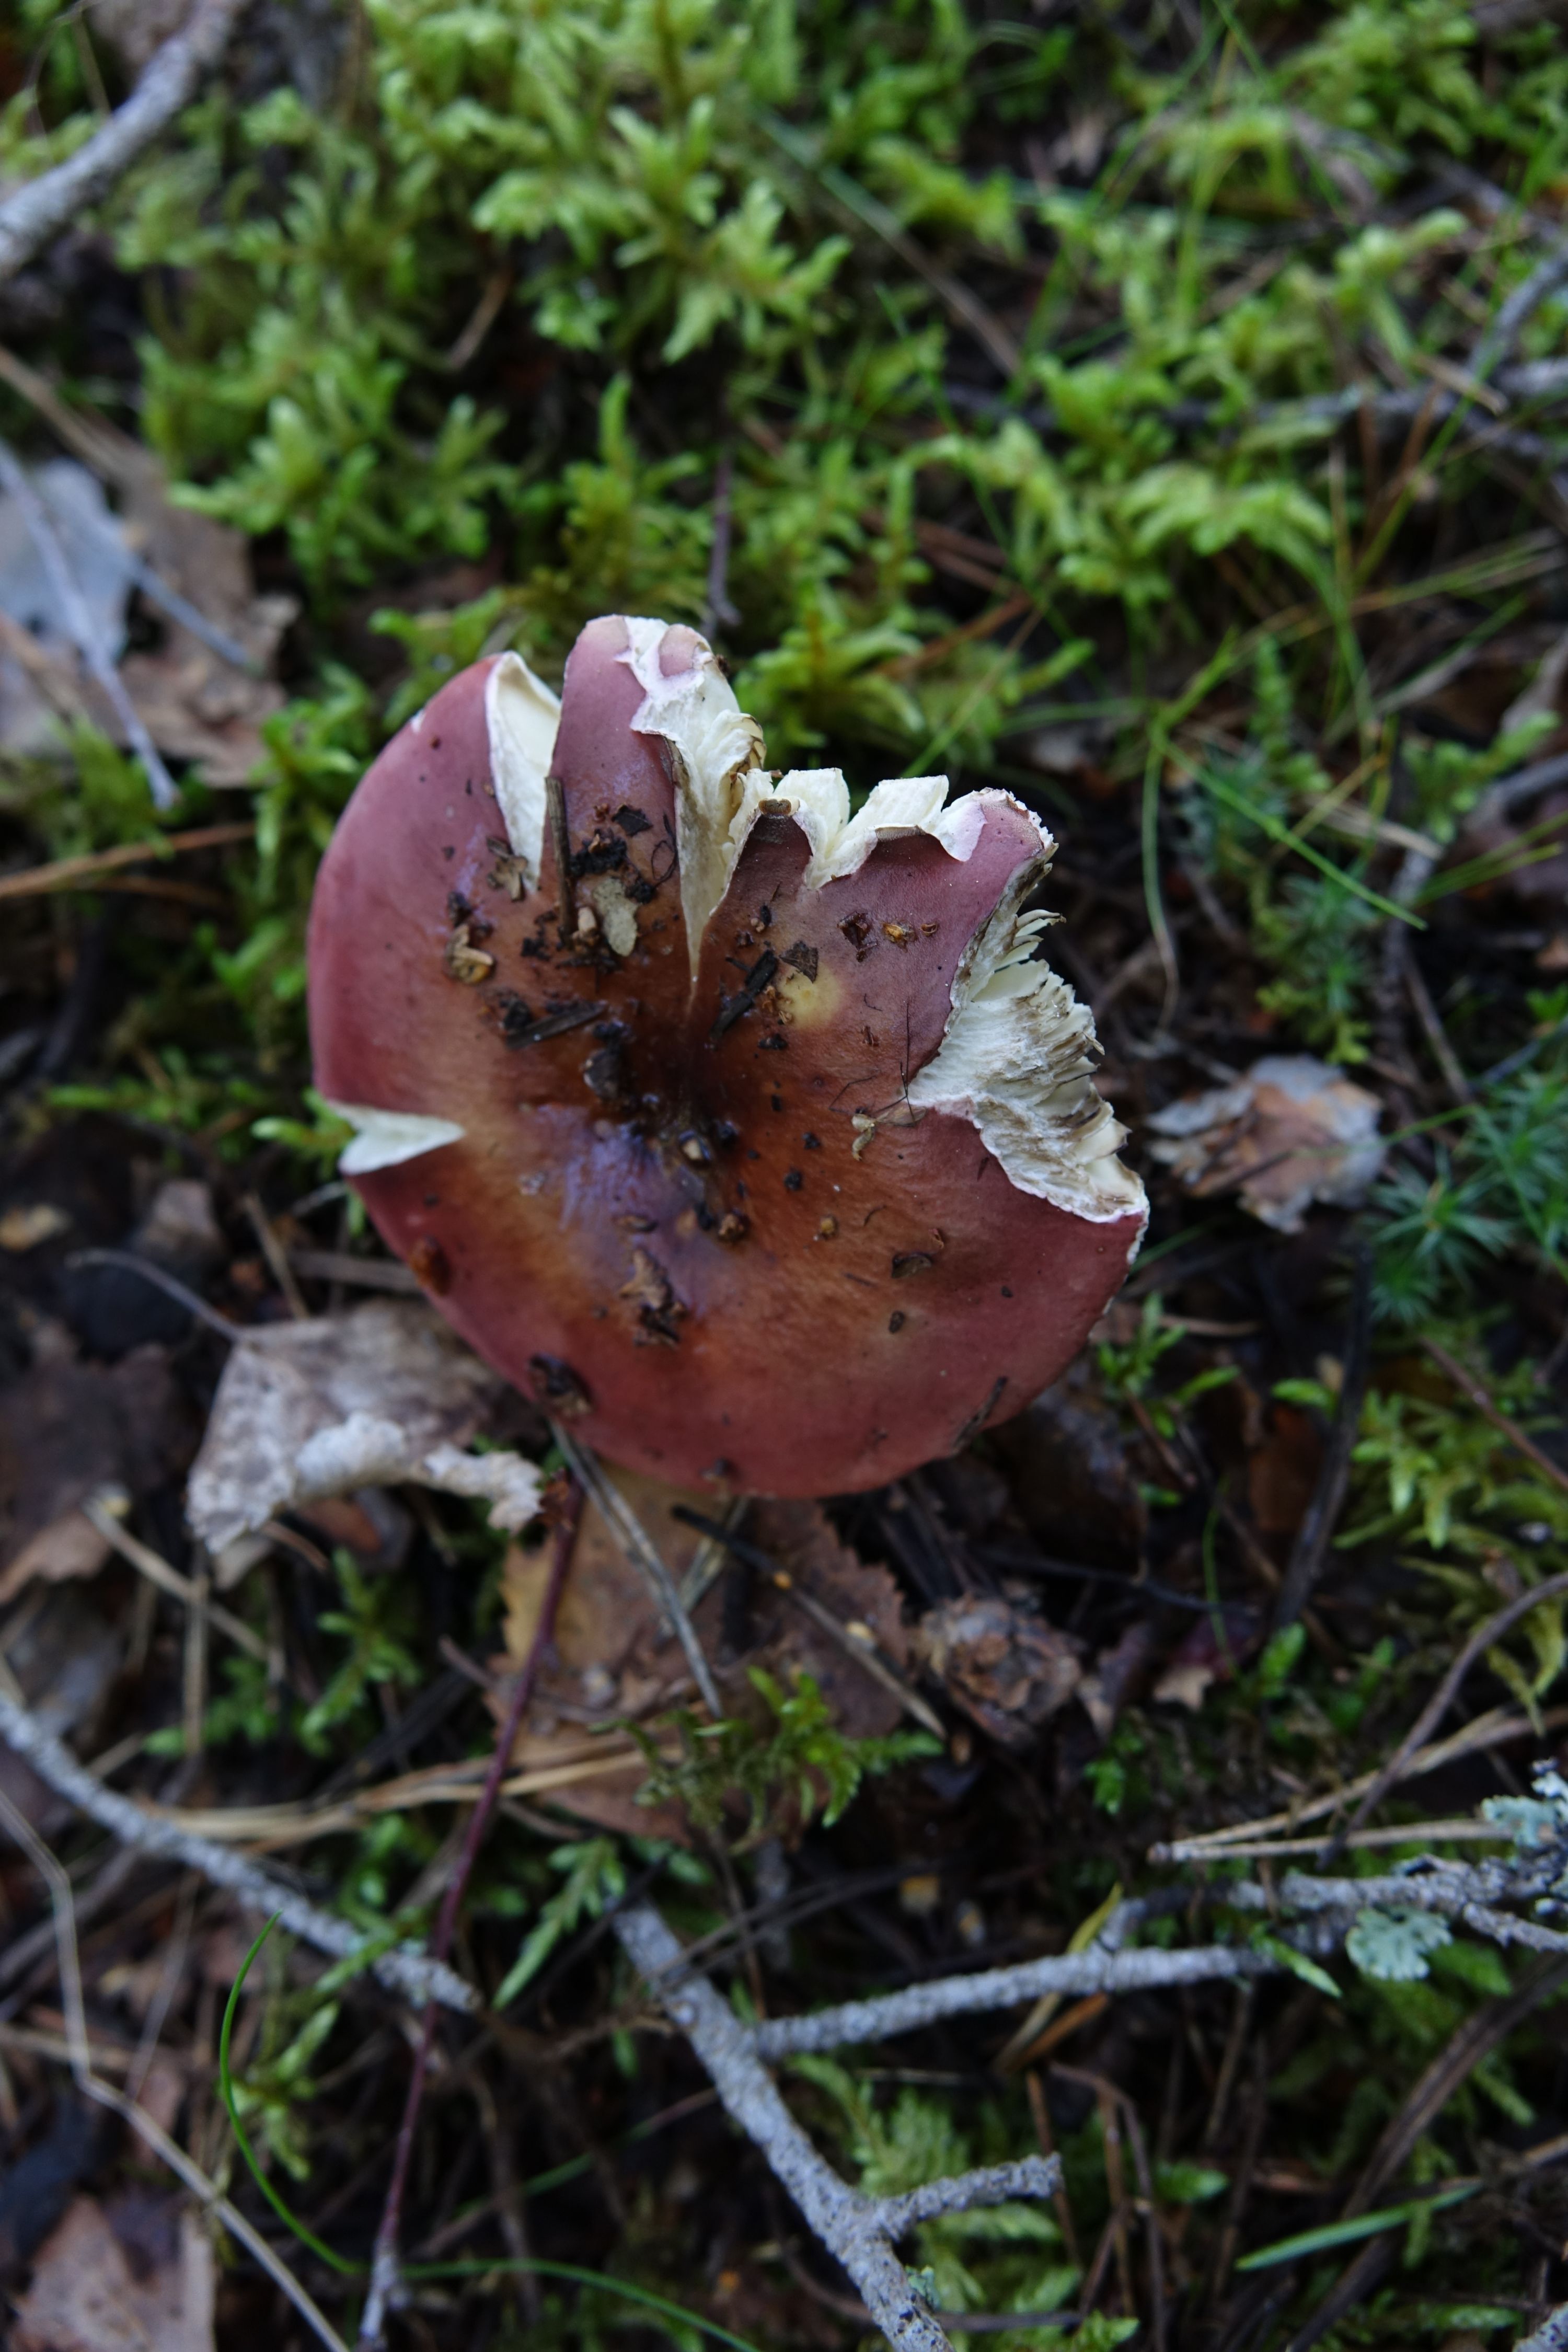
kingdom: Fungi
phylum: Basidiomycota
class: Agaricomycetes
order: Russulales
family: Russulaceae
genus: Russula
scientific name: Russula vinosa
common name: Darkening brittlegill
